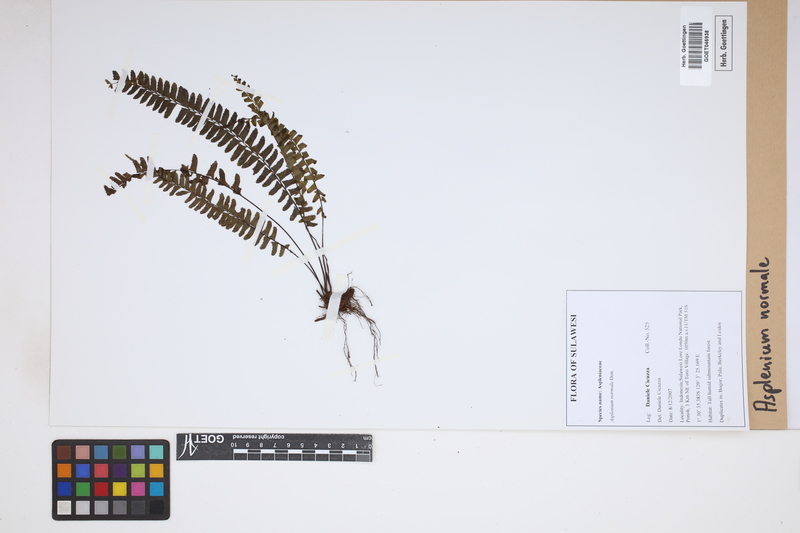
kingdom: Plantae
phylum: Tracheophyta
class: Polypodiopsida
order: Polypodiales
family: Aspleniaceae
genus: Asplenium
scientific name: Asplenium normale
